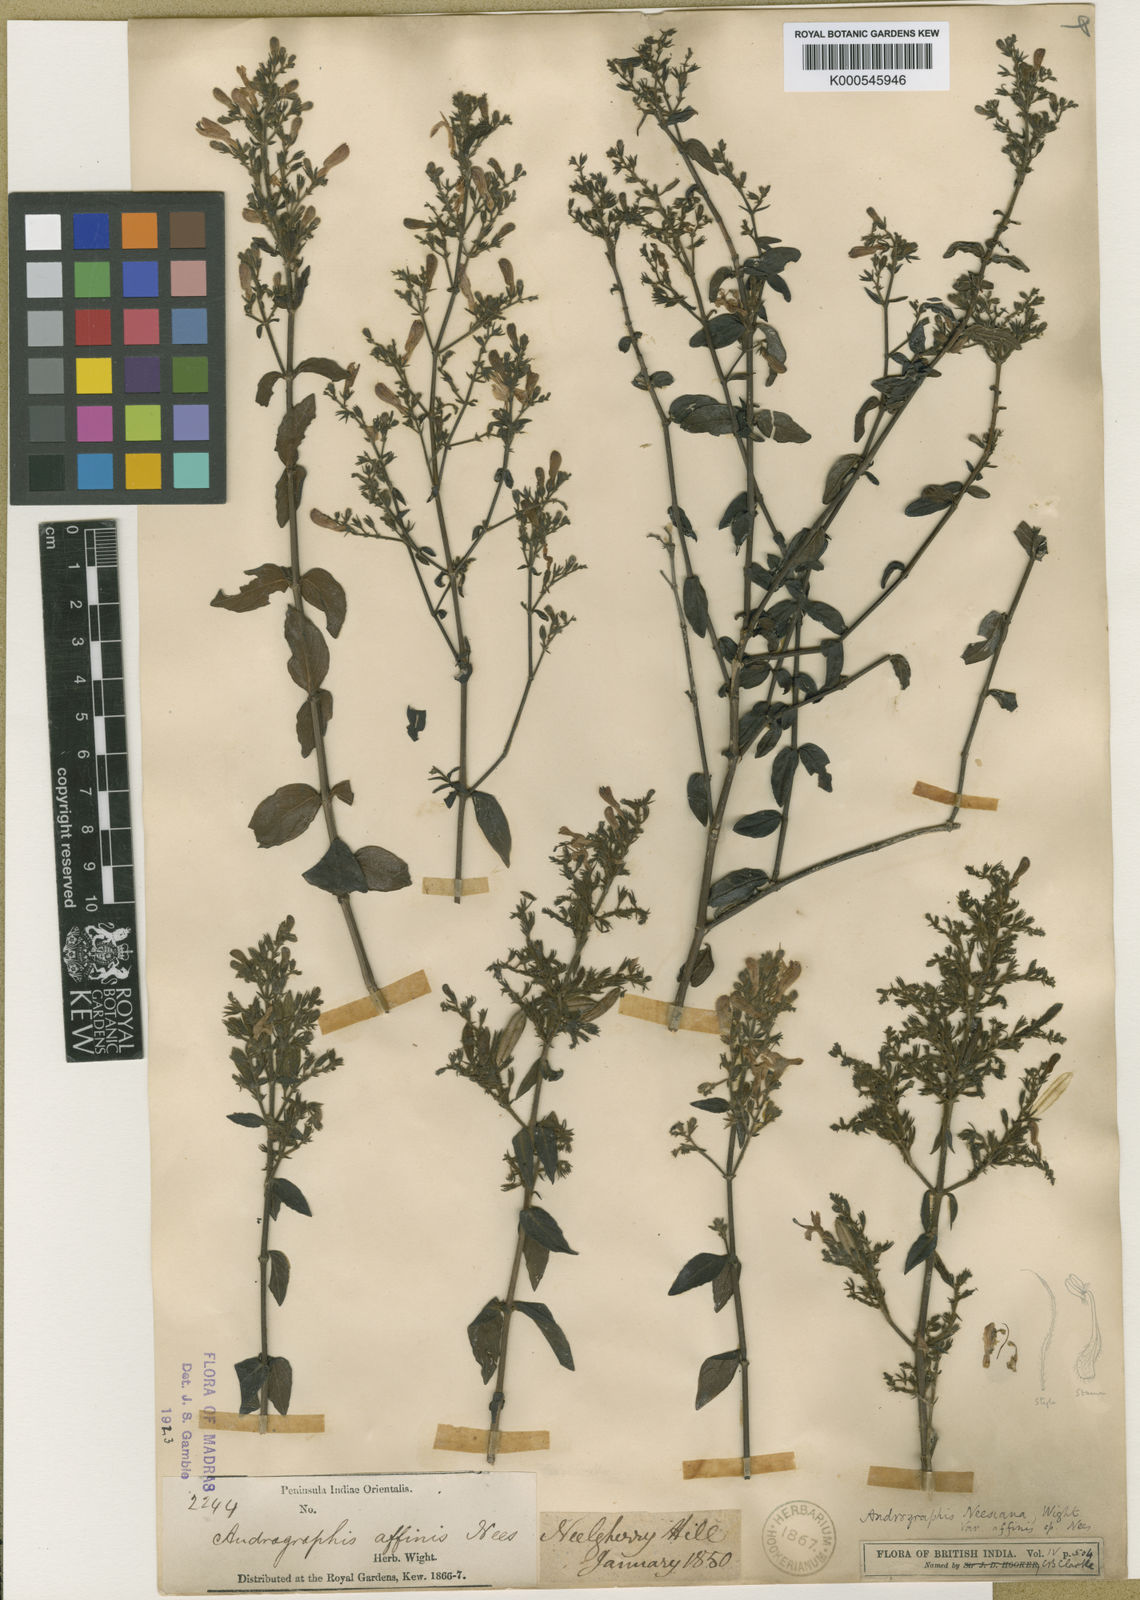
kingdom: Plantae
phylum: Tracheophyta
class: Magnoliopsida
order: Lamiales
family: Acanthaceae
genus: Andrographis
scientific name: Andrographis affinis
